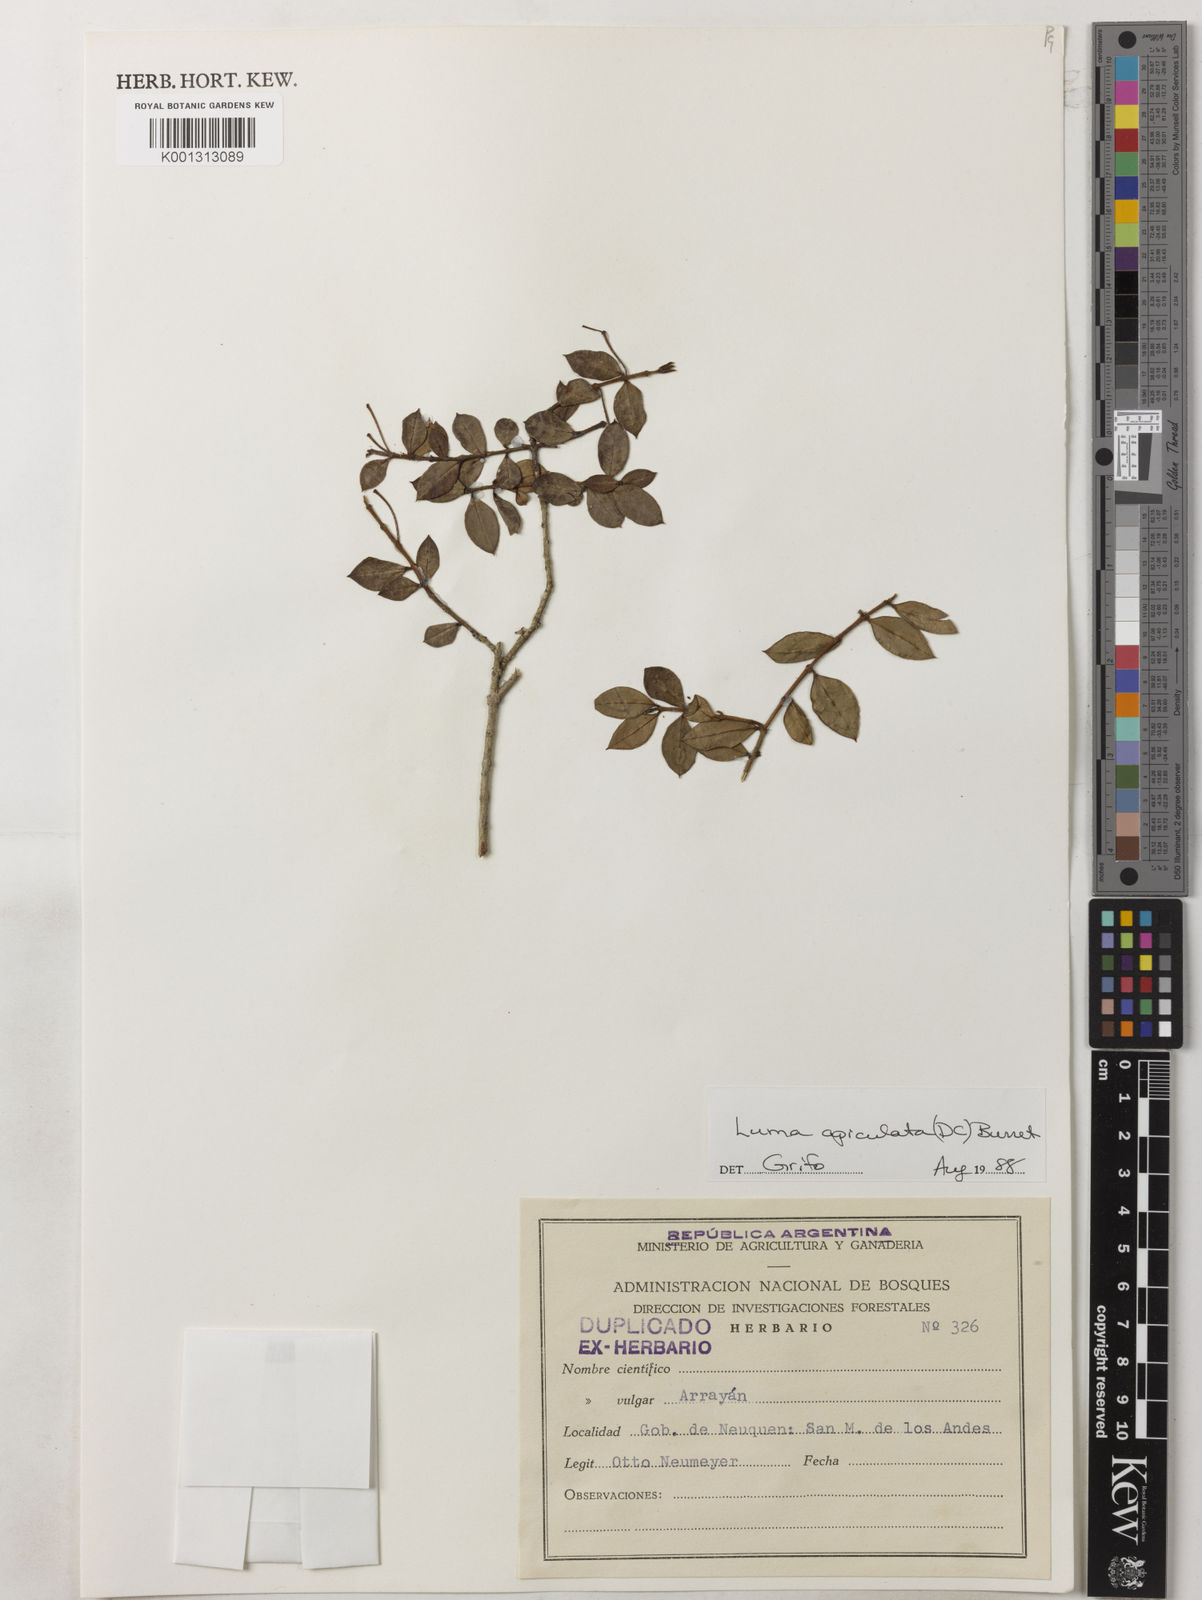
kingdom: Plantae
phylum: Tracheophyta
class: Magnoliopsida
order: Myrtales
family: Myrtaceae
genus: Luma
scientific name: Luma apiculata
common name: Chilean myrtle
